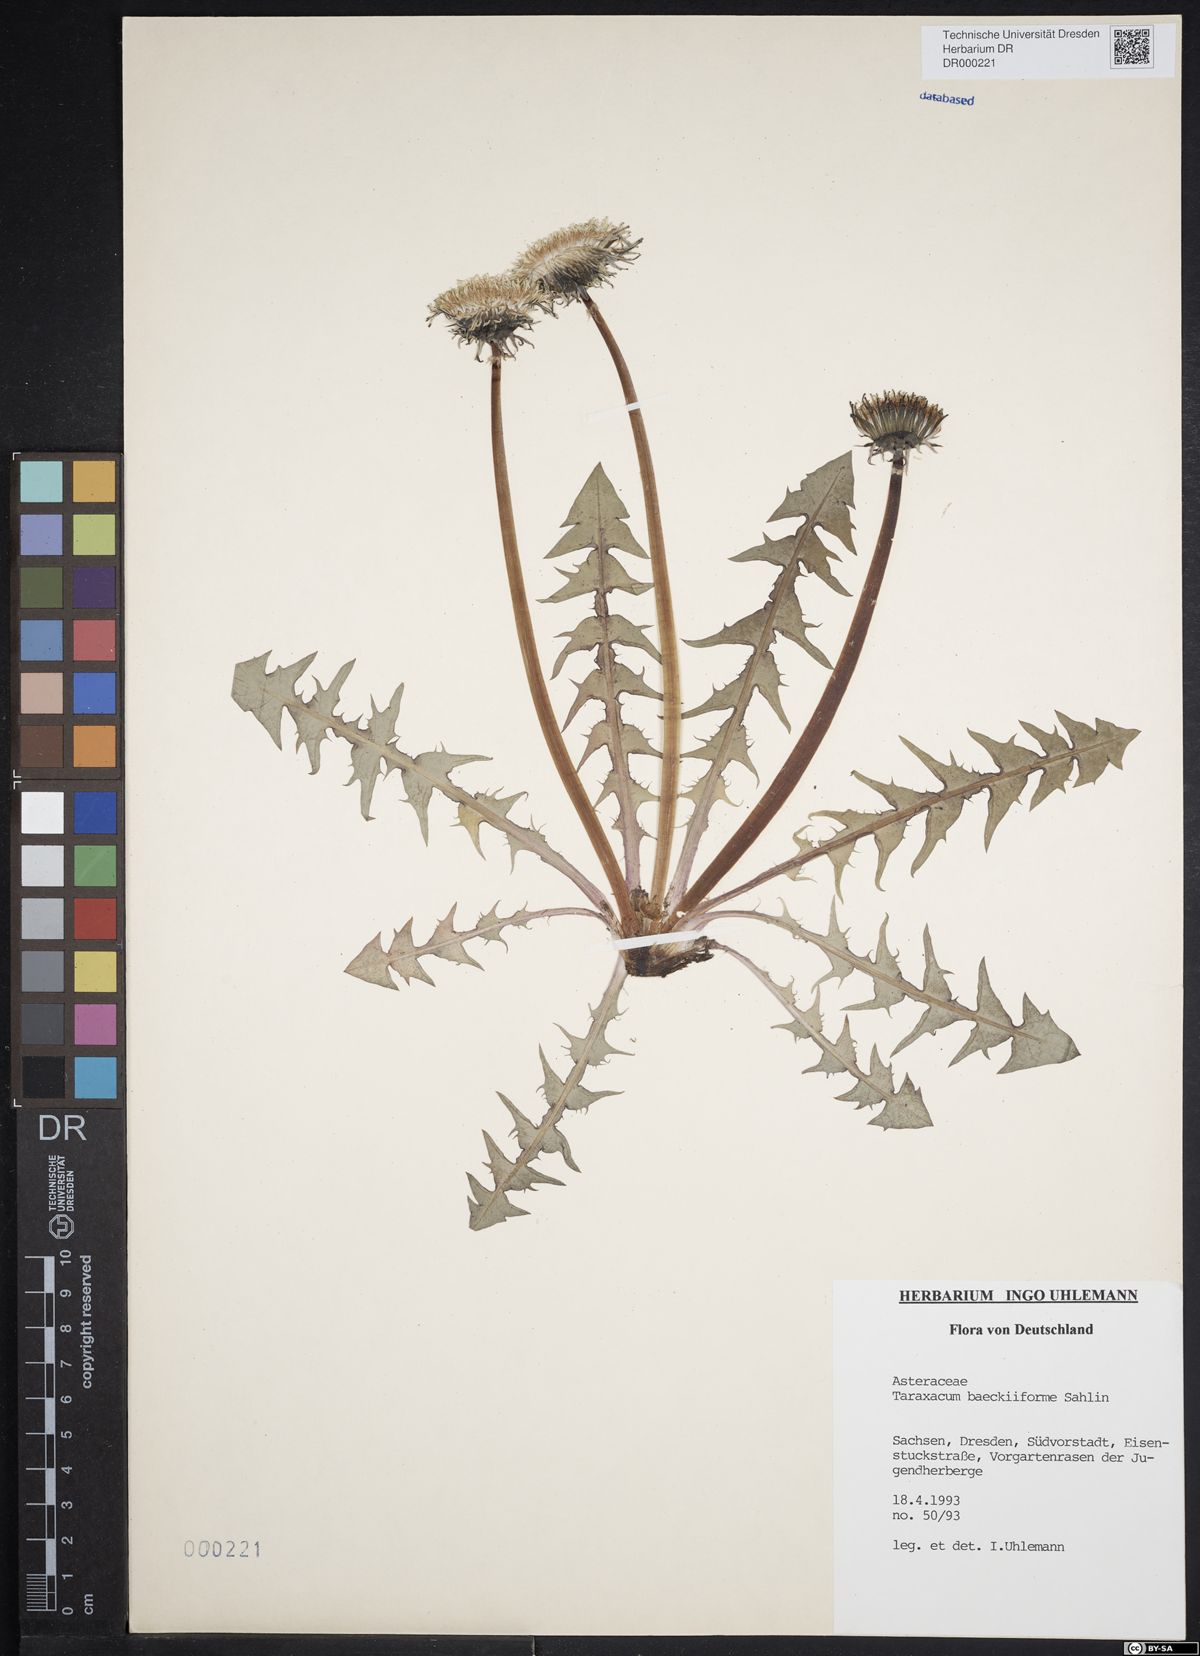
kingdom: Plantae
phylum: Tracheophyta
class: Magnoliopsida
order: Asterales
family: Asteraceae
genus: Taraxacum
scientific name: Taraxacum baeckiiforme
